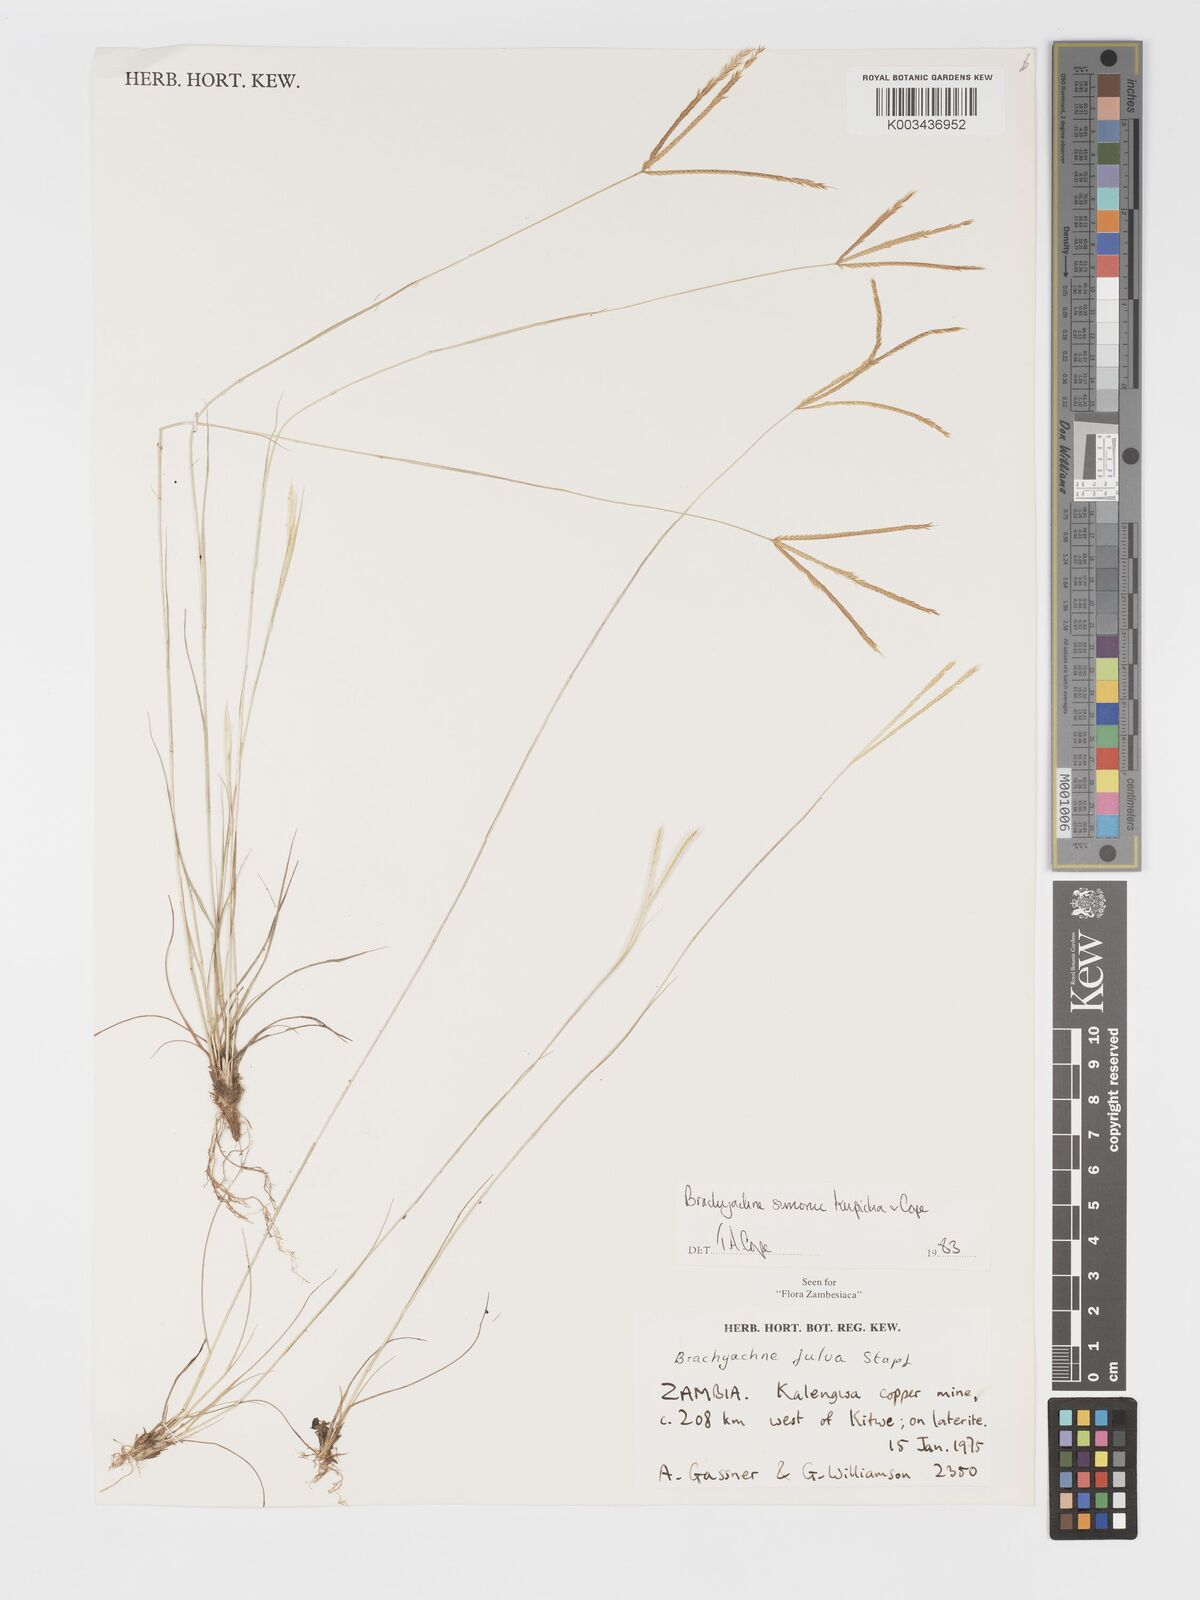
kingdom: Plantae
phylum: Tracheophyta
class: Liliopsida
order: Poales
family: Poaceae
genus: Micrachne
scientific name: Micrachne simonii
